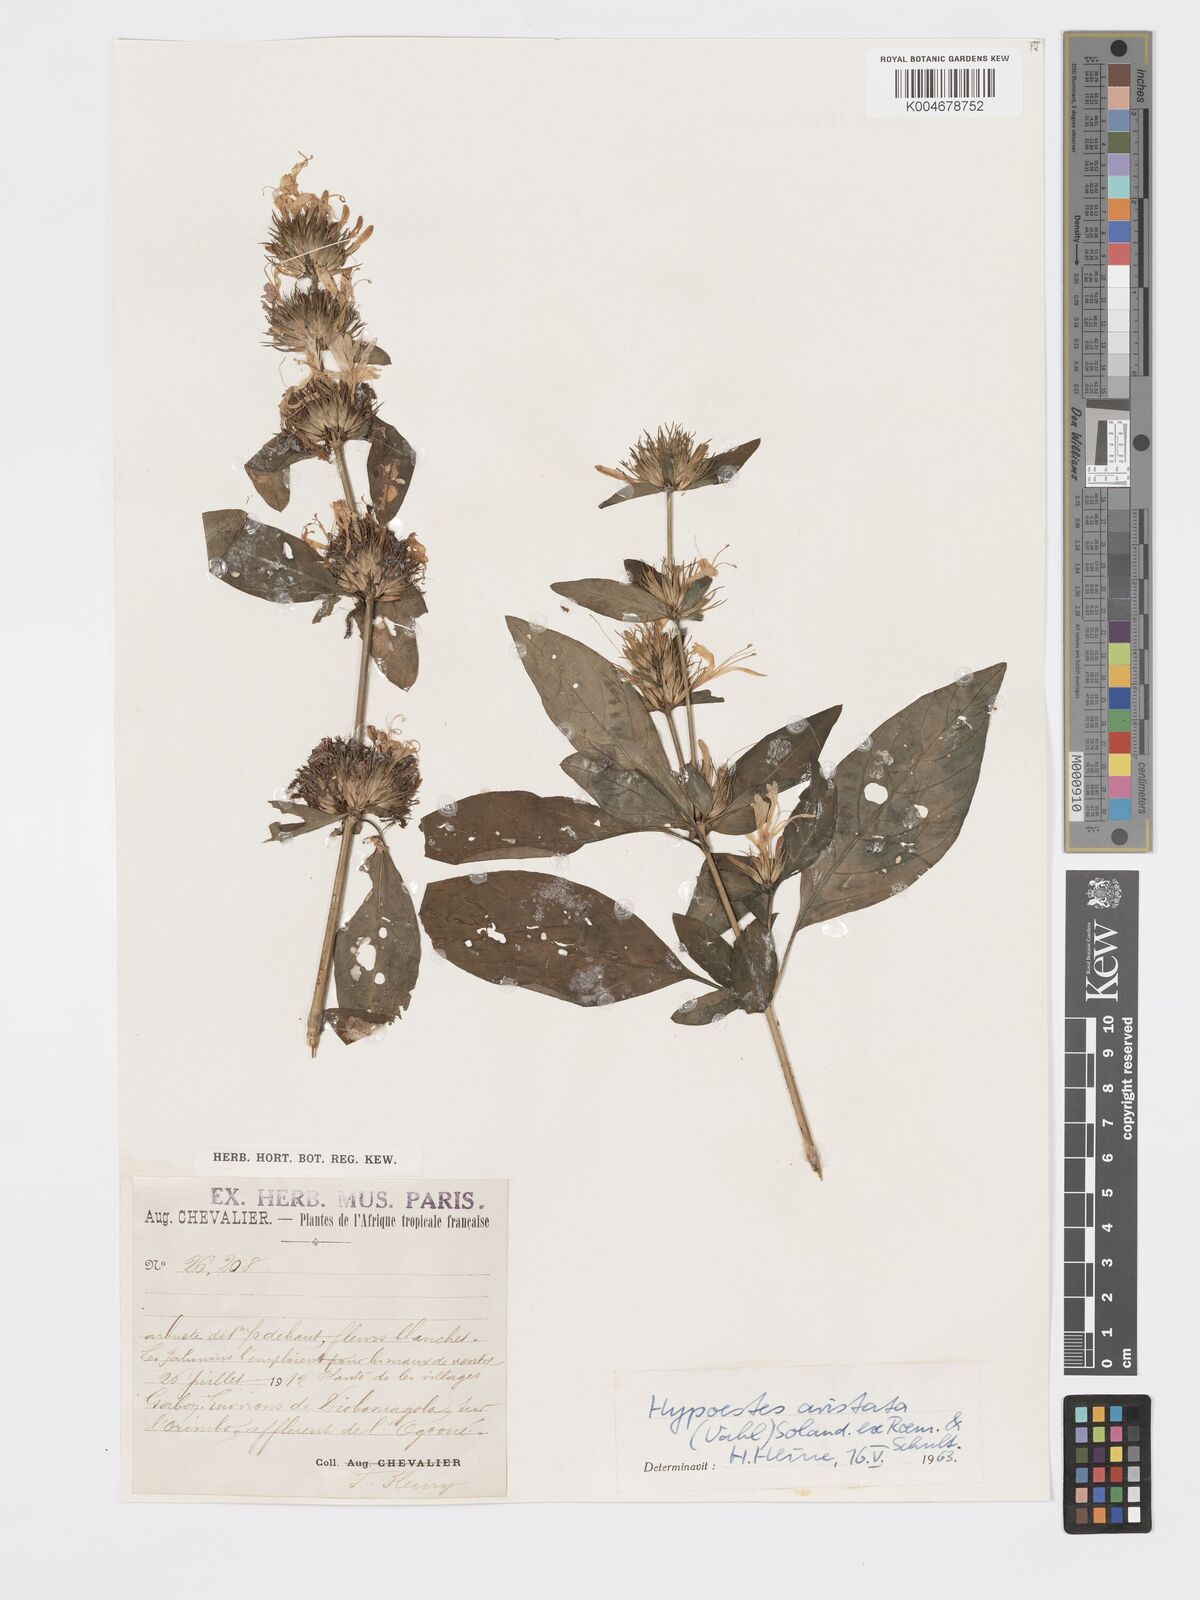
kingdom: Plantae
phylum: Tracheophyta
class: Magnoliopsida
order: Lamiales
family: Acanthaceae
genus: Hypoestes
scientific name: Hypoestes aristata
